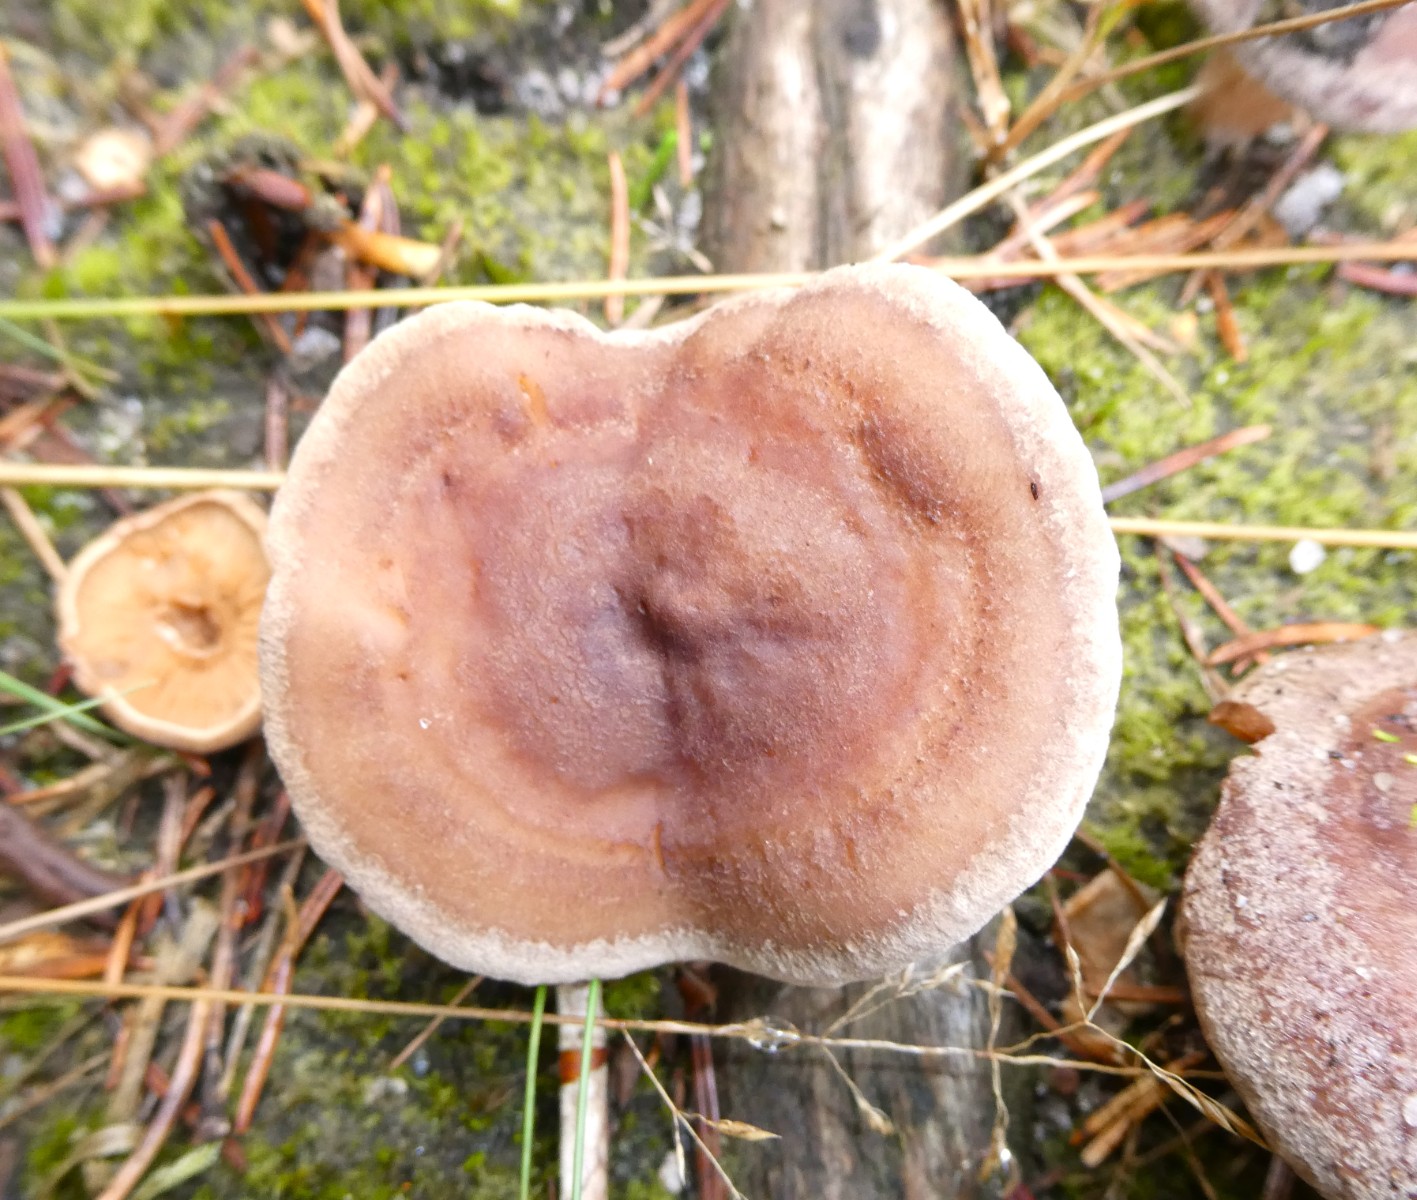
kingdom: Fungi
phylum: Basidiomycota
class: Agaricomycetes
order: Russulales
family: Russulaceae
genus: Lactarius
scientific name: Lactarius mammosus
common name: kokosbrun mælkehat
